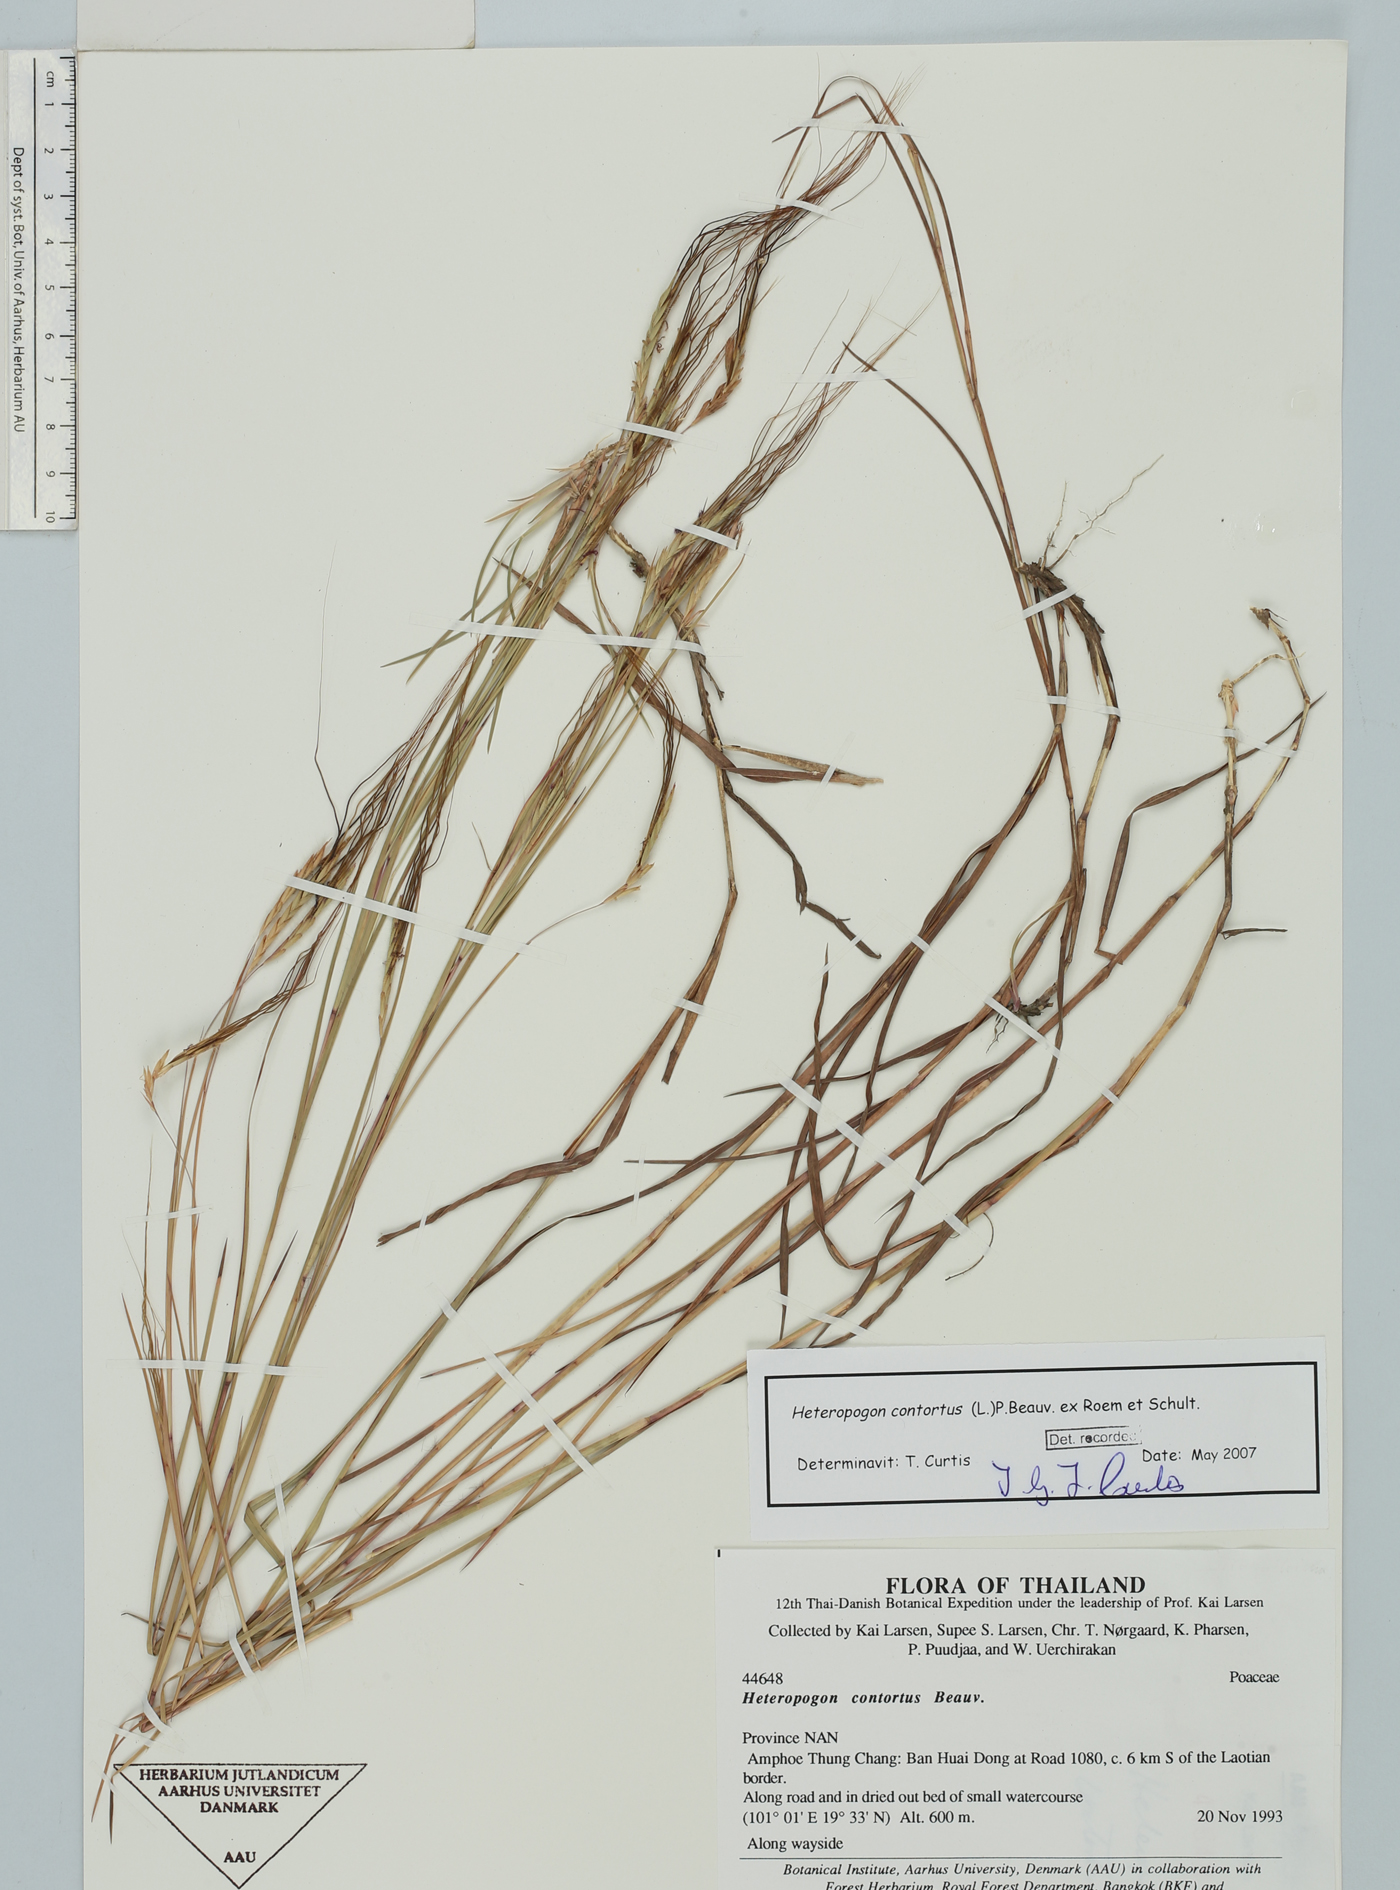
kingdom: Plantae
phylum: Tracheophyta
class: Liliopsida
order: Poales
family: Poaceae
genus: Heteropogon
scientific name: Heteropogon contortus
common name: Tanglehead
